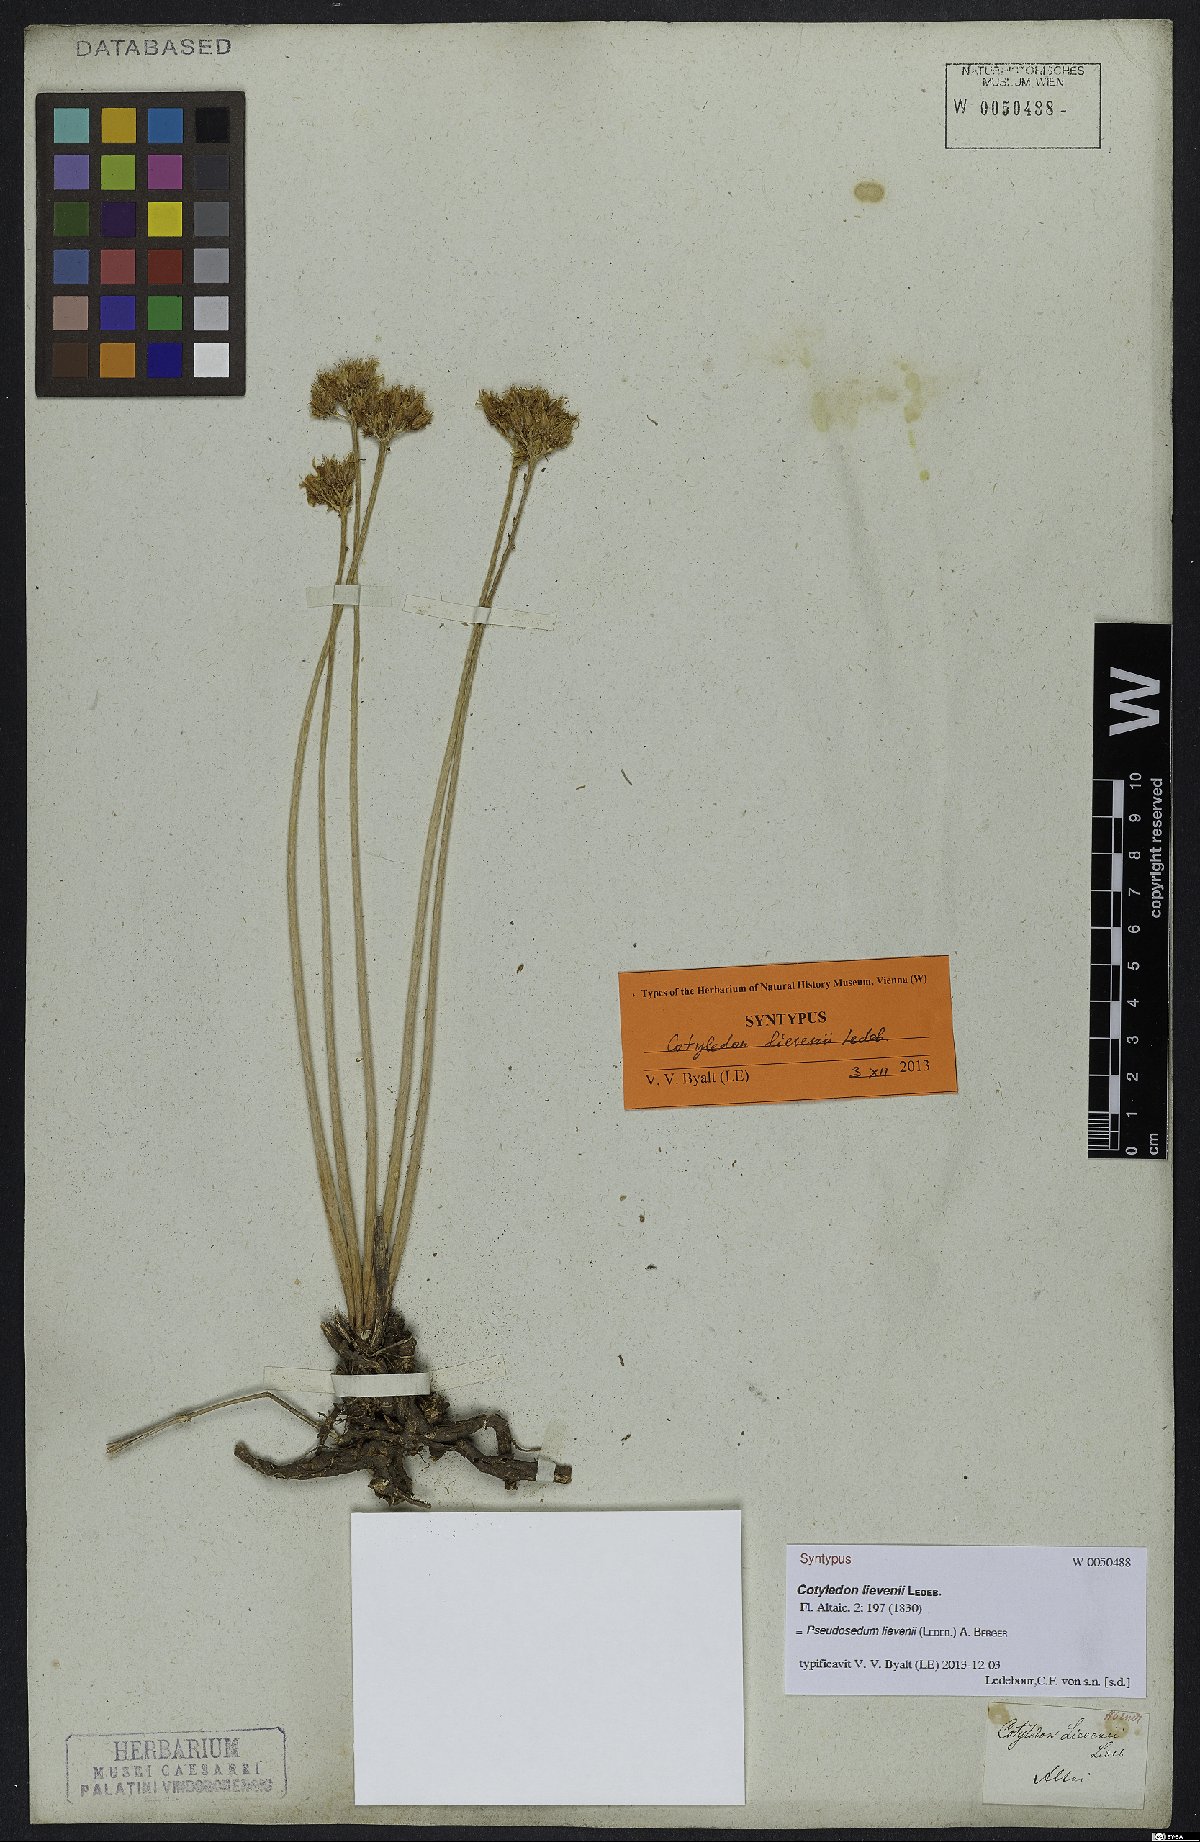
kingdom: Plantae
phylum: Tracheophyta
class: Magnoliopsida
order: Saxifragales
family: Crassulaceae
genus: Pseudosedum
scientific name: Pseudosedum lievenii
